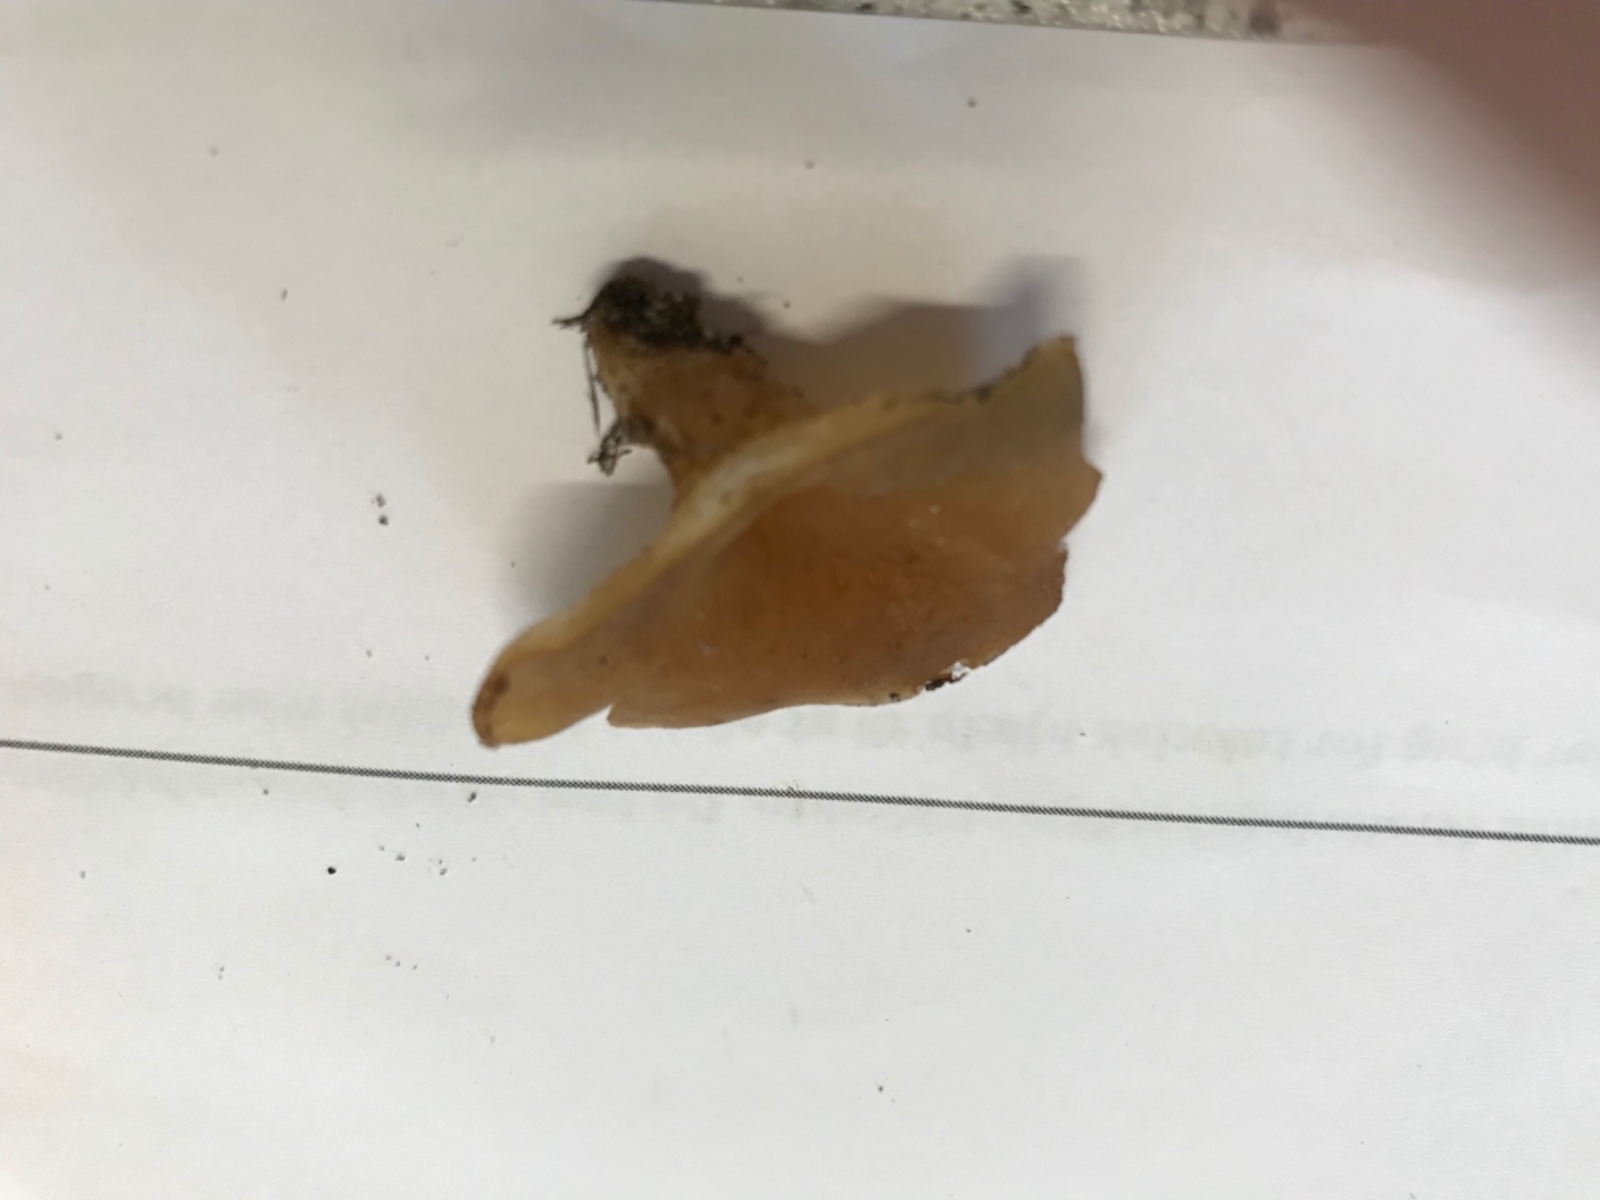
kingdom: Fungi
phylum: Ascomycota
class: Pezizomycetes
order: Pezizales
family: Pezizaceae
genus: Peziza
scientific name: Peziza vesiculosa
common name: blære-bægersvamp
